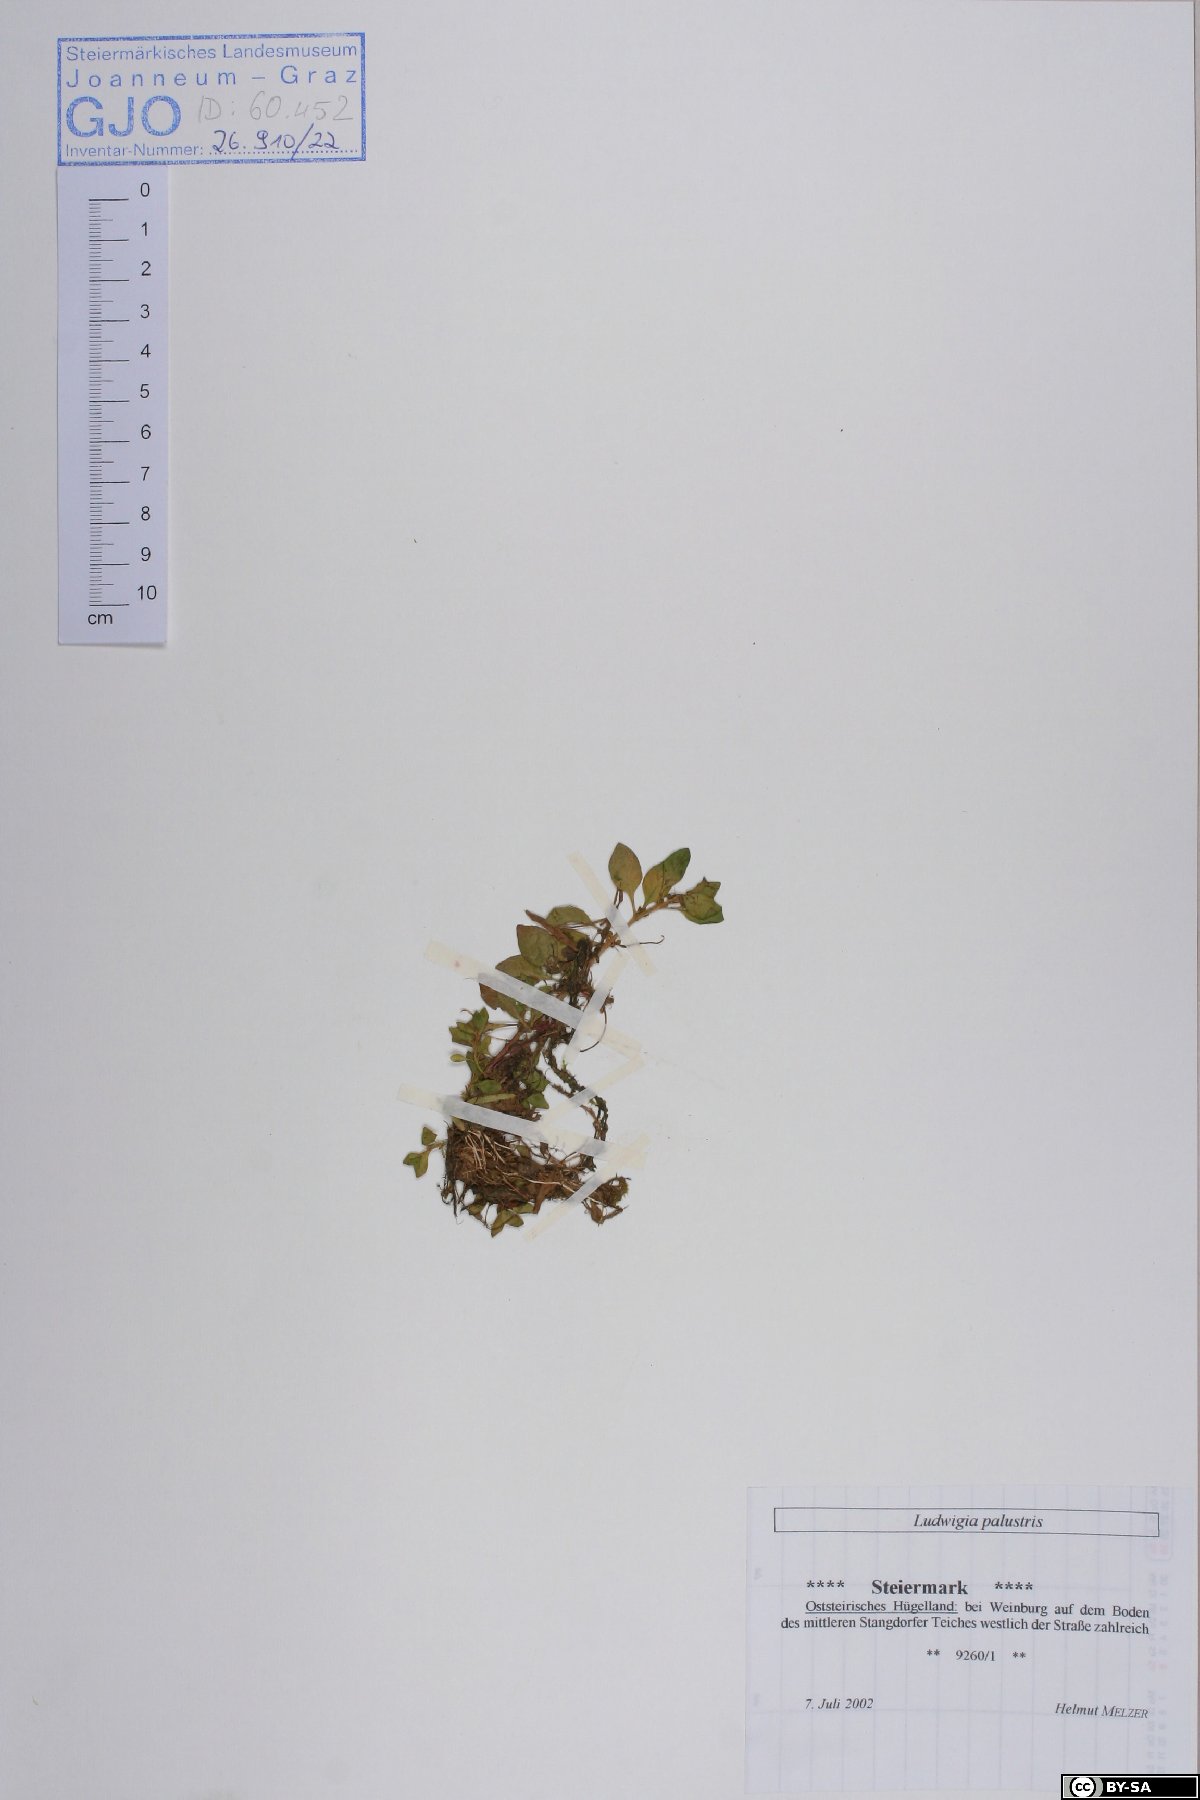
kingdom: Plantae
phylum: Tracheophyta
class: Magnoliopsida
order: Myrtales
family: Onagraceae
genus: Ludwigia
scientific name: Ludwigia palustris
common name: Hampshire-purslane
